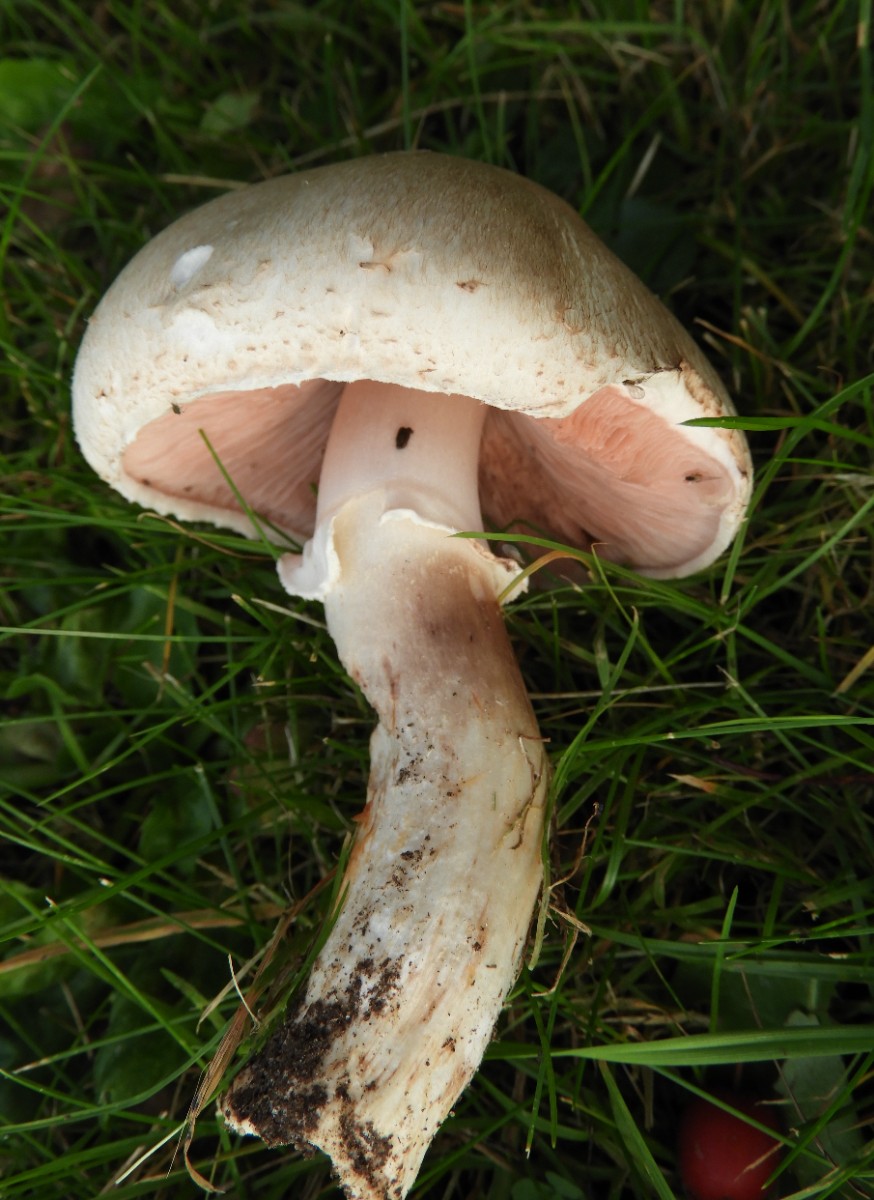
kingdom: Fungi
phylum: Basidiomycota
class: Agaricomycetes
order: Agaricales
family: Agaricaceae
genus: Agaricus
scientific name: Agaricus arvensis
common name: ager-champignon
